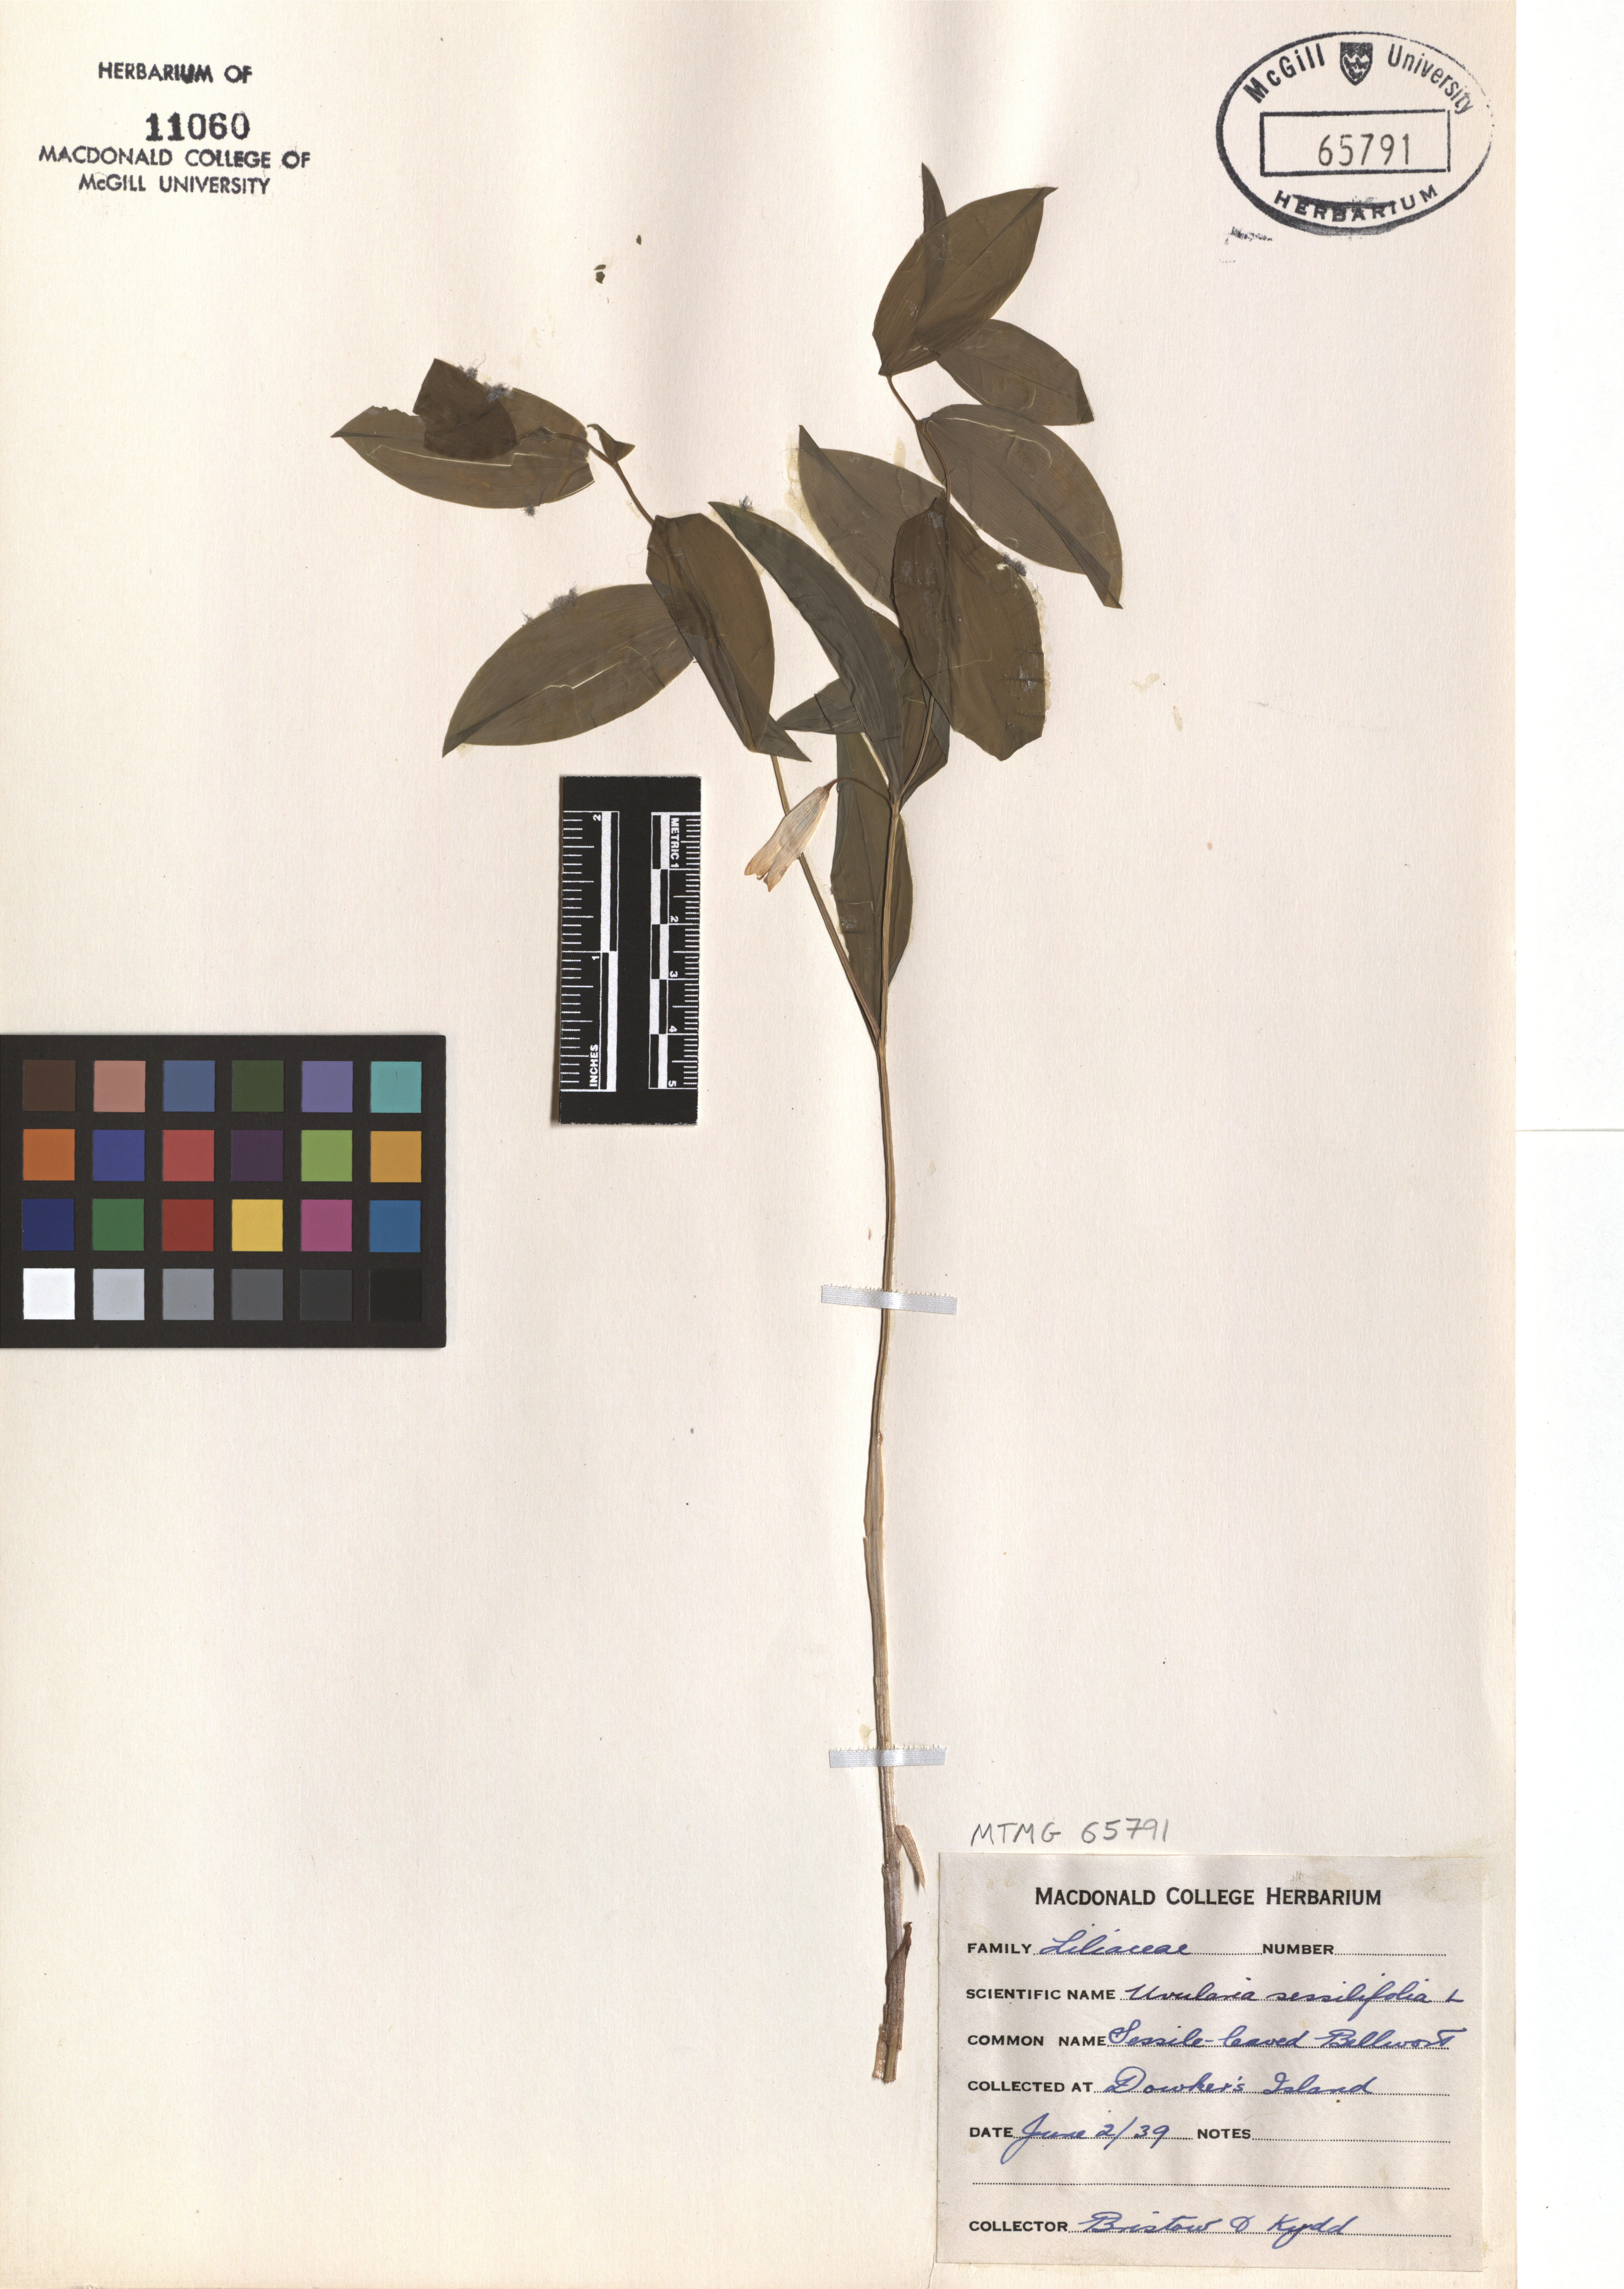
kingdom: Plantae
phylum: Tracheophyta
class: Liliopsida
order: Liliales
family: Colchicaceae
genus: Uvularia
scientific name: Uvularia sessilifolia
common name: Straw-lily
